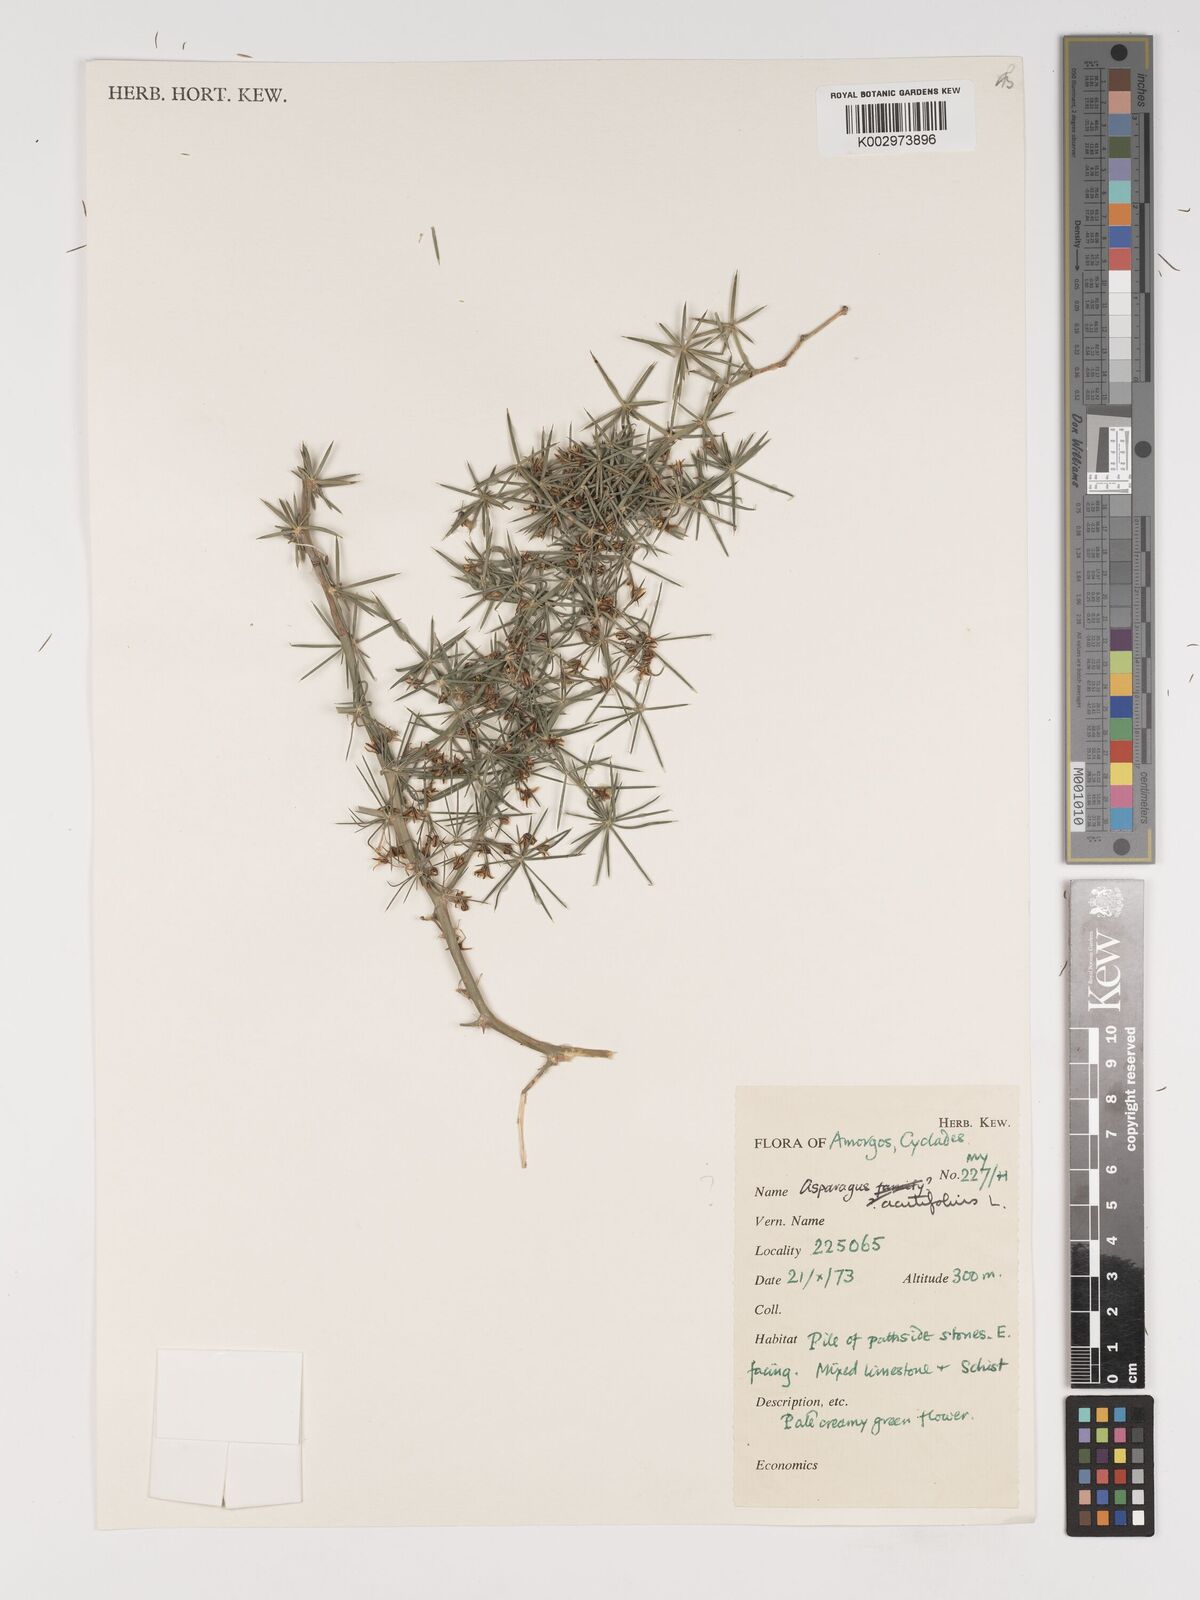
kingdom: Plantae
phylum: Tracheophyta
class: Liliopsida
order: Asparagales
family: Asparagaceae
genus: Asparagus
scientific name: Asparagus acutifolius
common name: Wild asparagus
